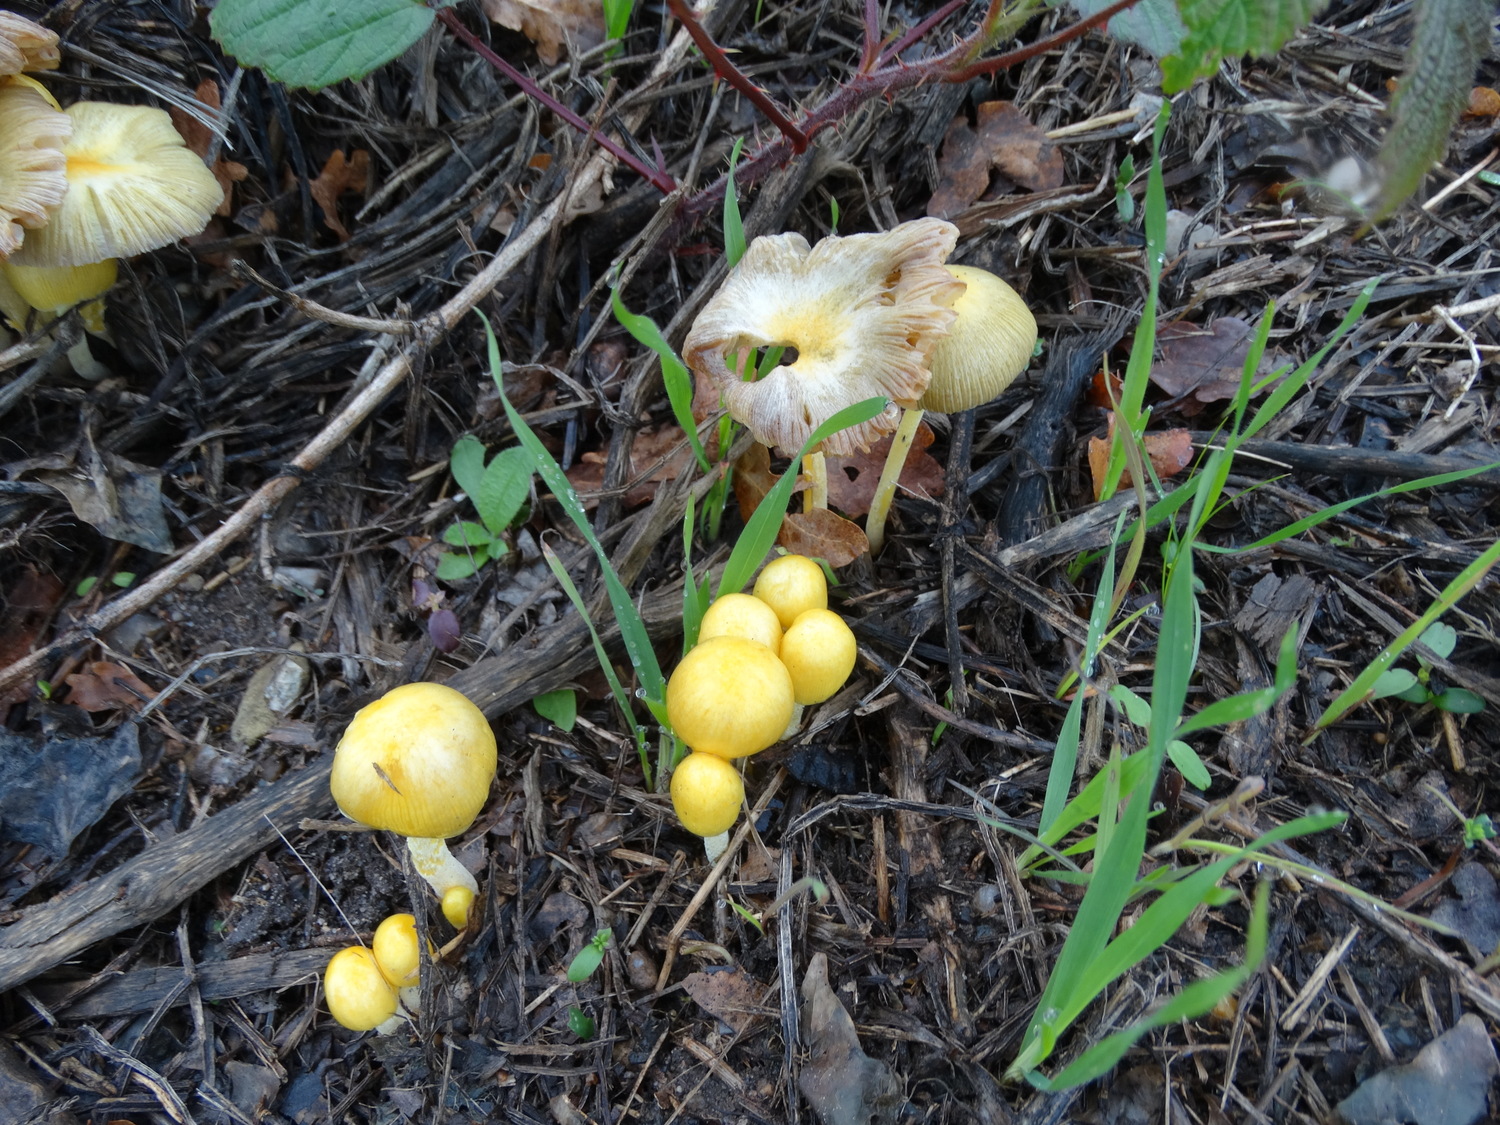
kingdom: Fungi
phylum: Basidiomycota
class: Agaricomycetes
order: Agaricales
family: Bolbitiaceae
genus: Bolbitius
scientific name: Bolbitius titubans
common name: almindelig gulhat
